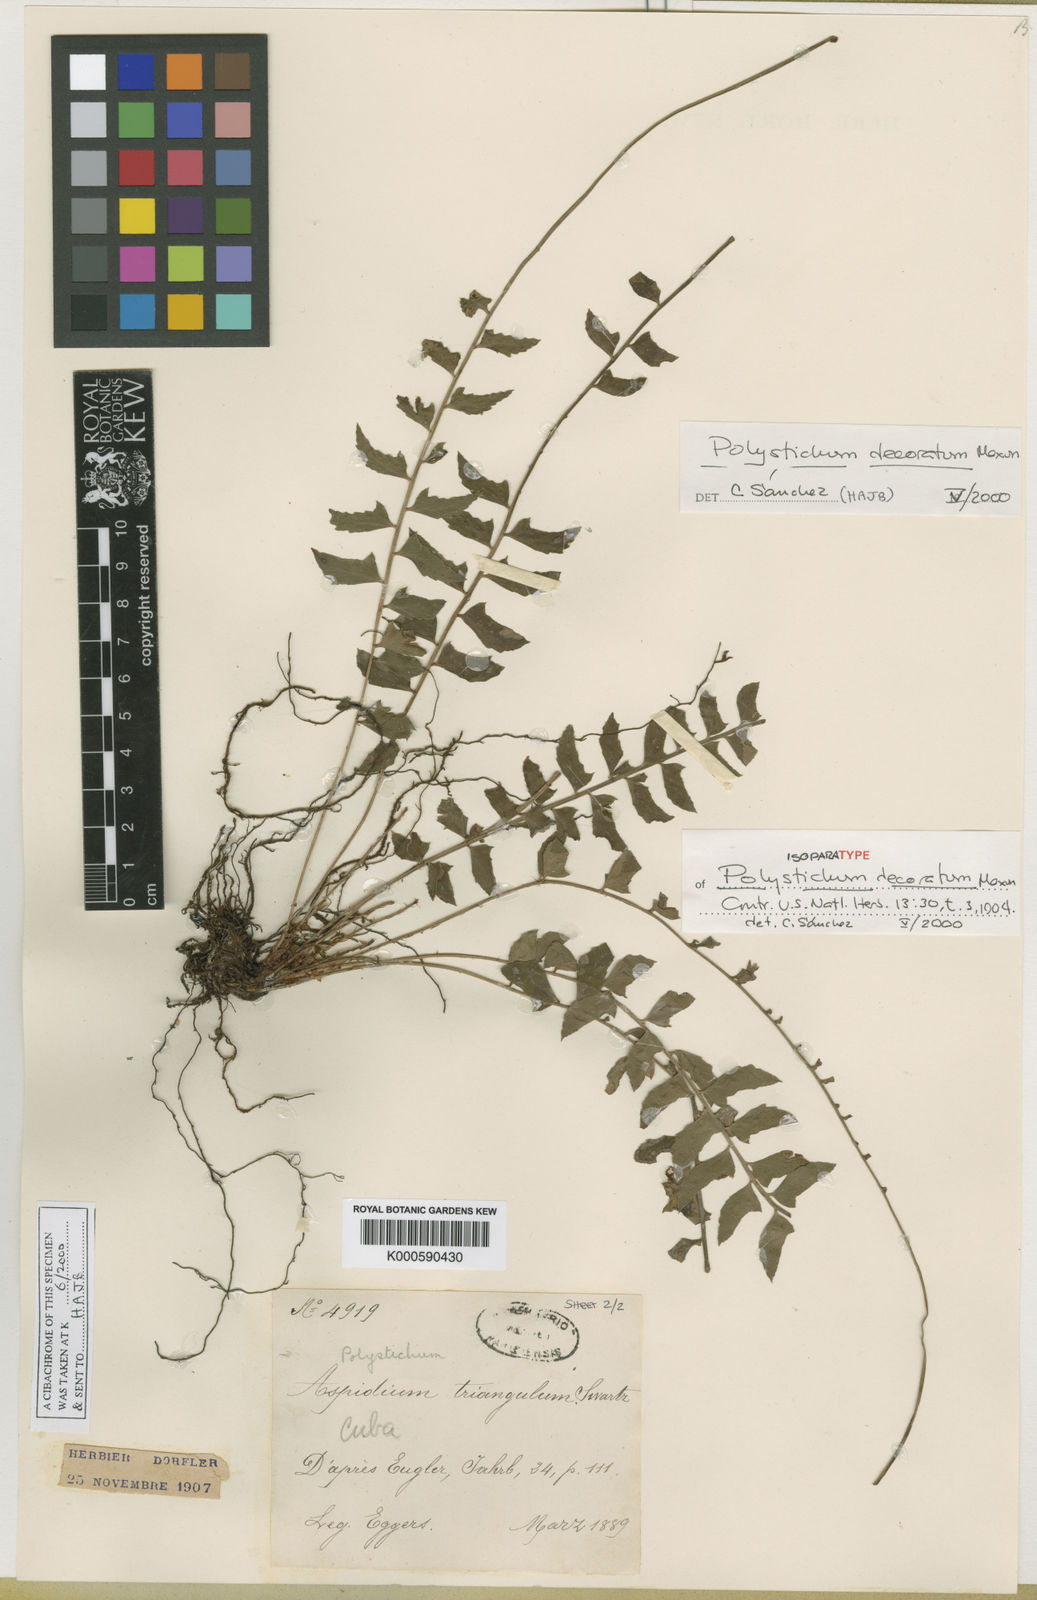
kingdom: Plantae
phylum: Tracheophyta
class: Polypodiopsida
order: Polypodiales
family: Dryopteridaceae
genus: Polystichum
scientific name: Polystichum decoratum
